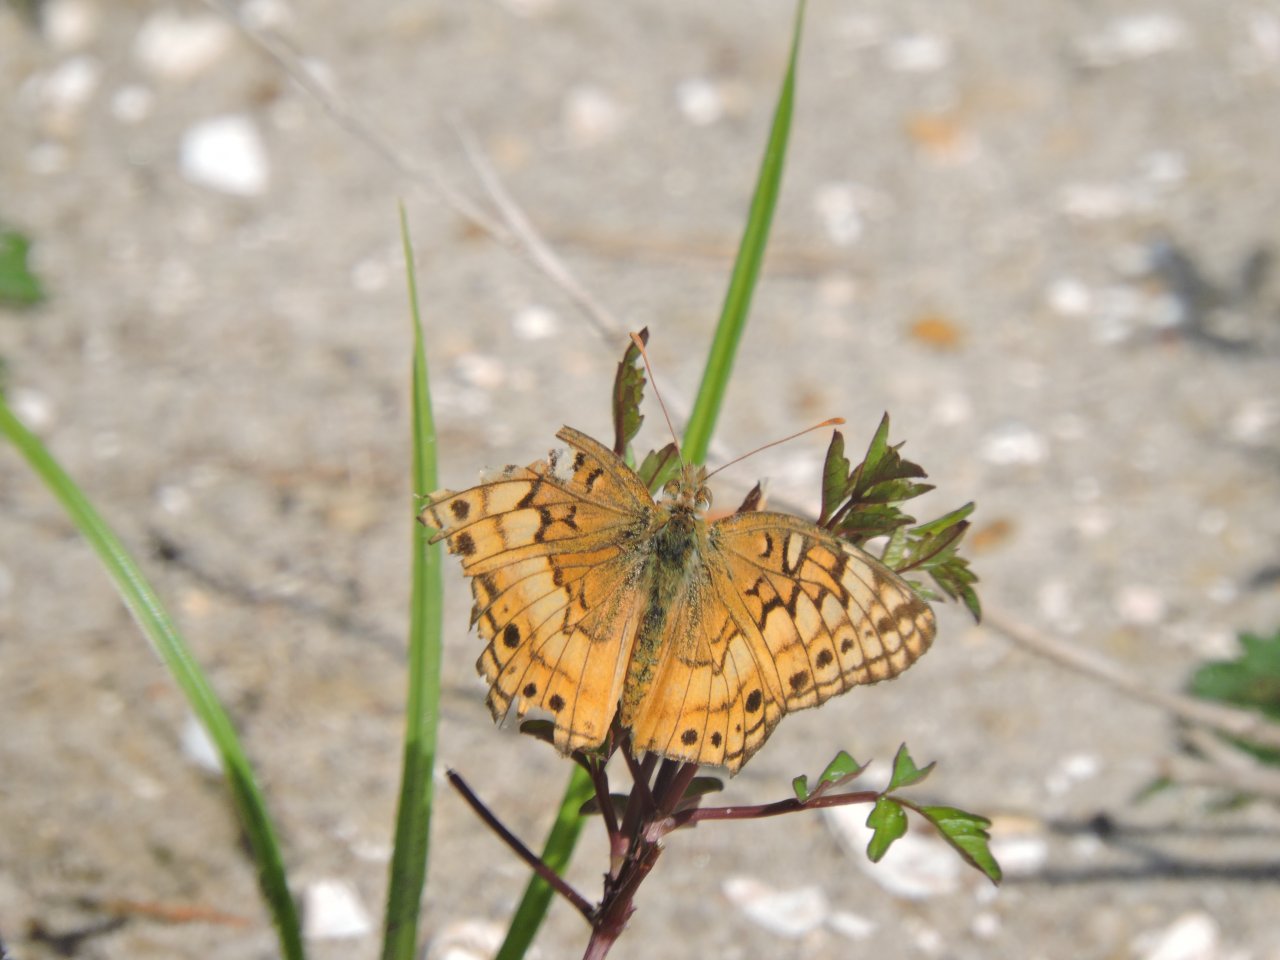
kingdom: Animalia
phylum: Arthropoda
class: Insecta
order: Lepidoptera
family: Nymphalidae
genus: Euptoieta
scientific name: Euptoieta claudia
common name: Variegated Fritillary
